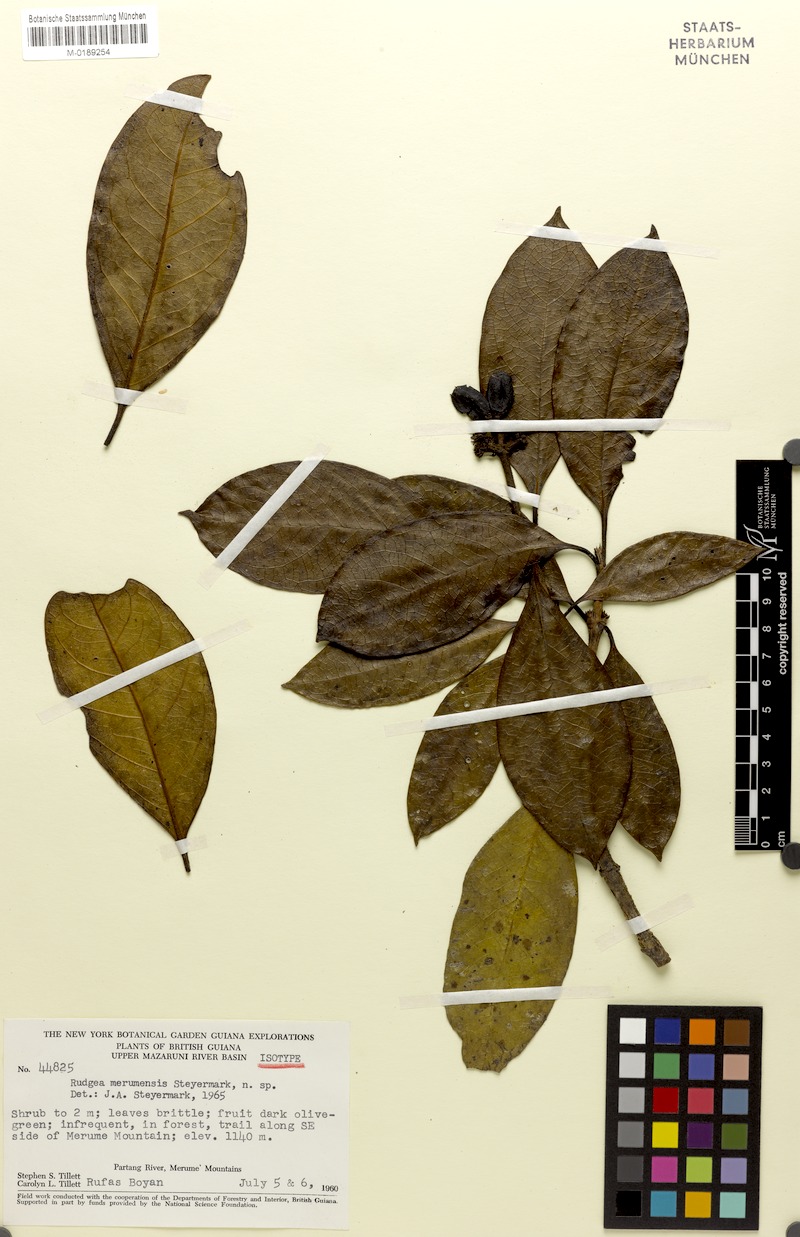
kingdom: Plantae
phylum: Tracheophyta
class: Magnoliopsida
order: Gentianales
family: Rubiaceae
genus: Rudgea
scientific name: Rudgea lanceifolia
